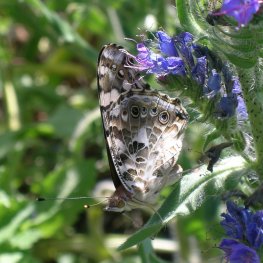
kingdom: Animalia
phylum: Arthropoda
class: Insecta
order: Lepidoptera
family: Nymphalidae
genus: Vanessa
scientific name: Vanessa cardui
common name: Painted Lady
